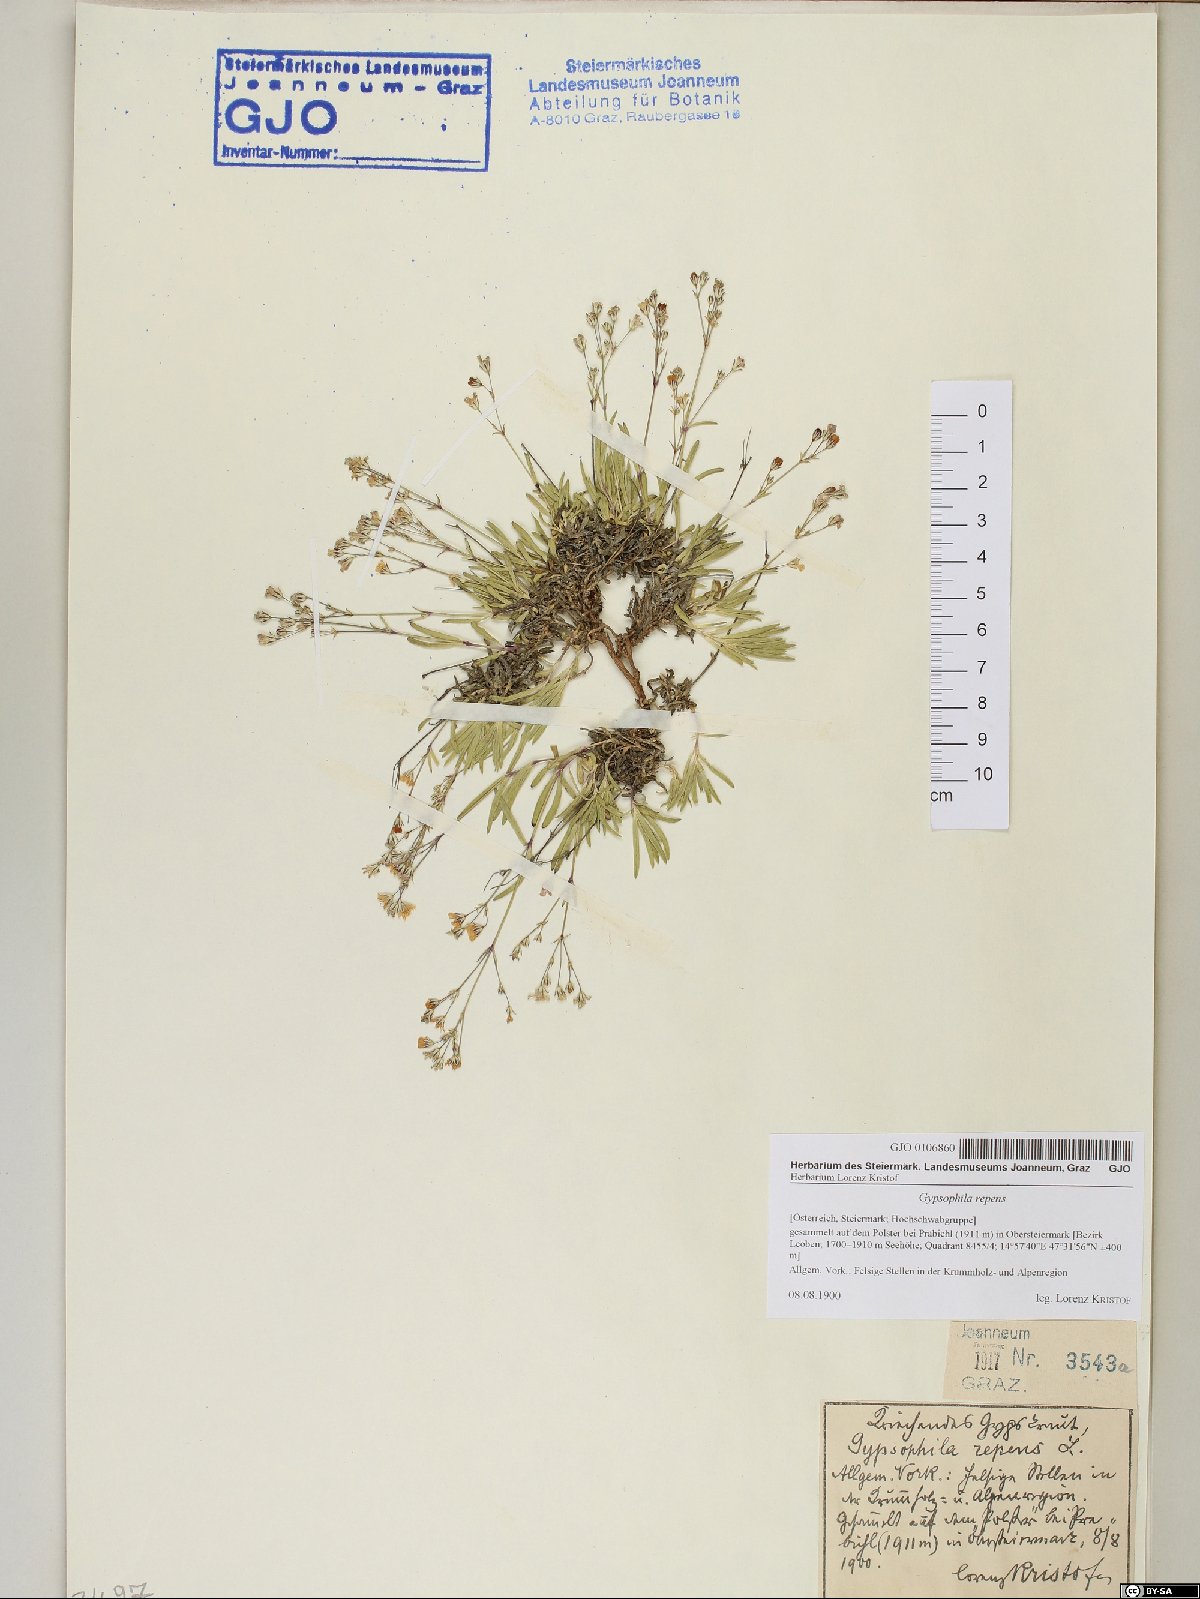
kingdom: Plantae
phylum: Tracheophyta
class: Magnoliopsida
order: Caryophyllales
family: Caryophyllaceae
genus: Gypsophila
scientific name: Gypsophila repens
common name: Creeping baby's-breath
